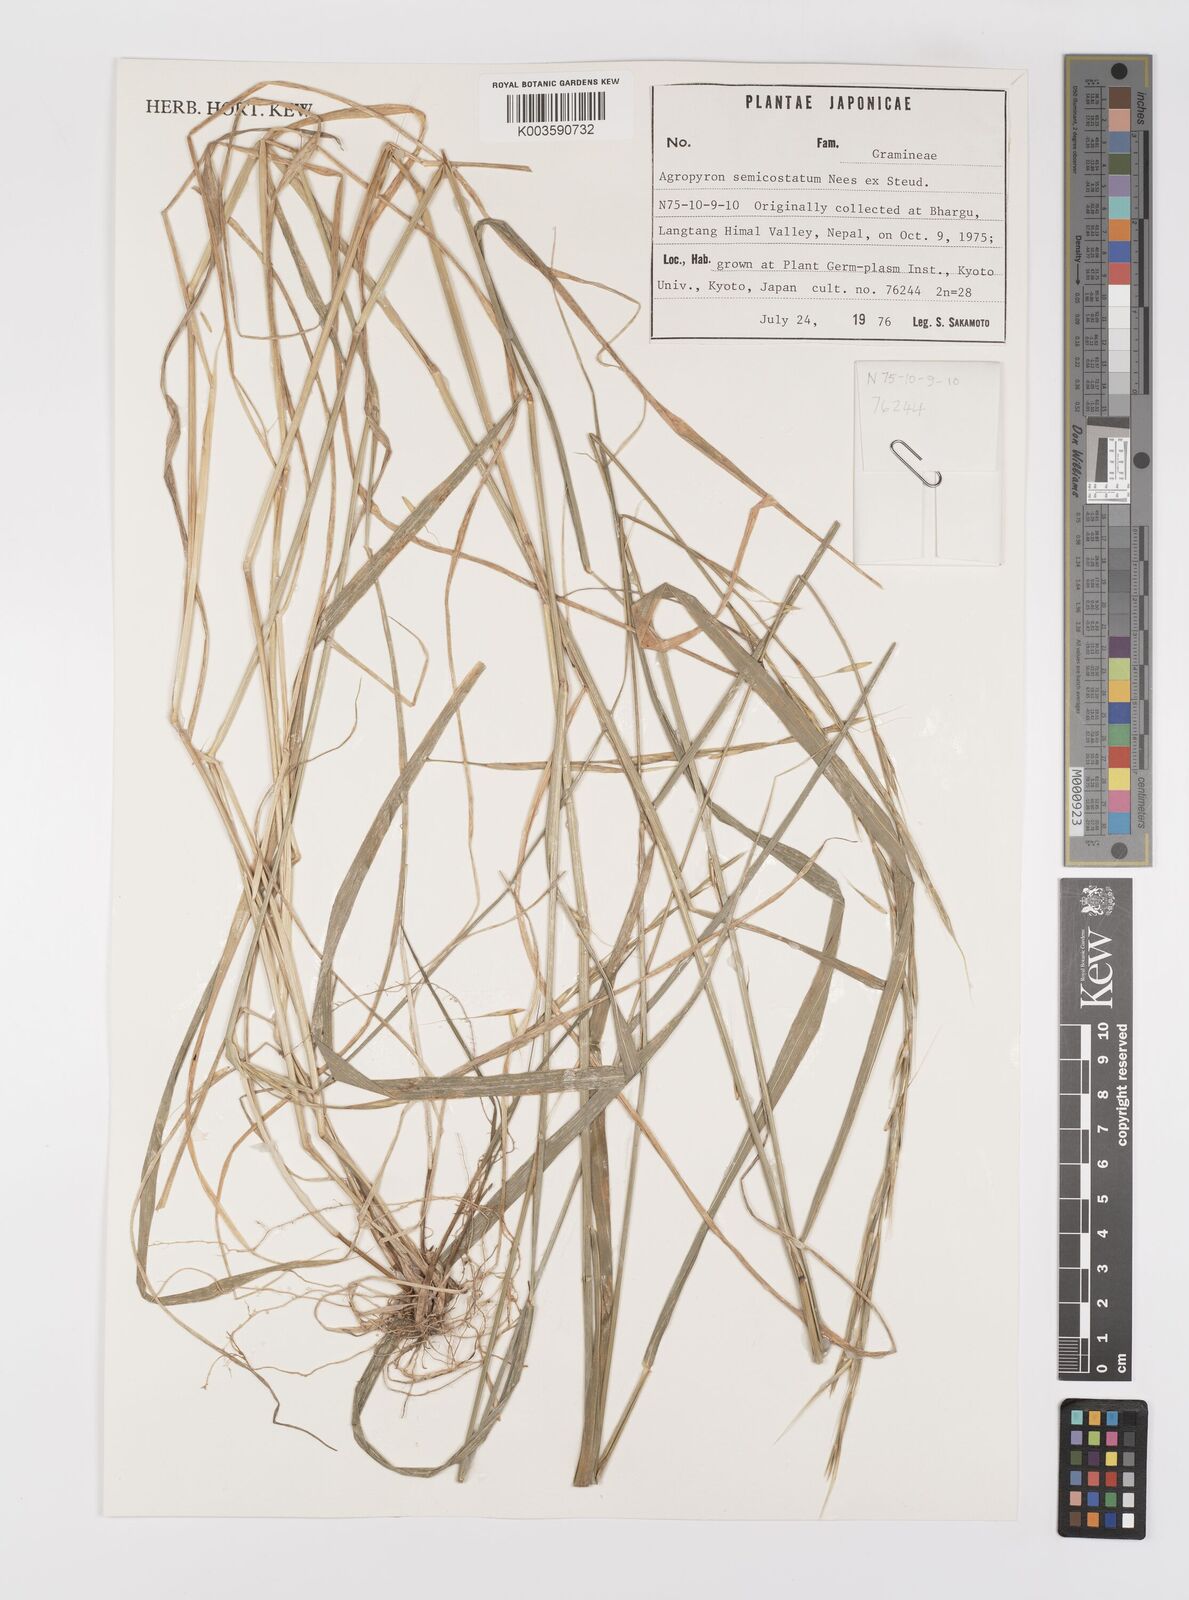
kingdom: Plantae
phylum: Tracheophyta
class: Liliopsida
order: Poales
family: Poaceae
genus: Elymus
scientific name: Elymus semicostatus
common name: Drooping wildrye
